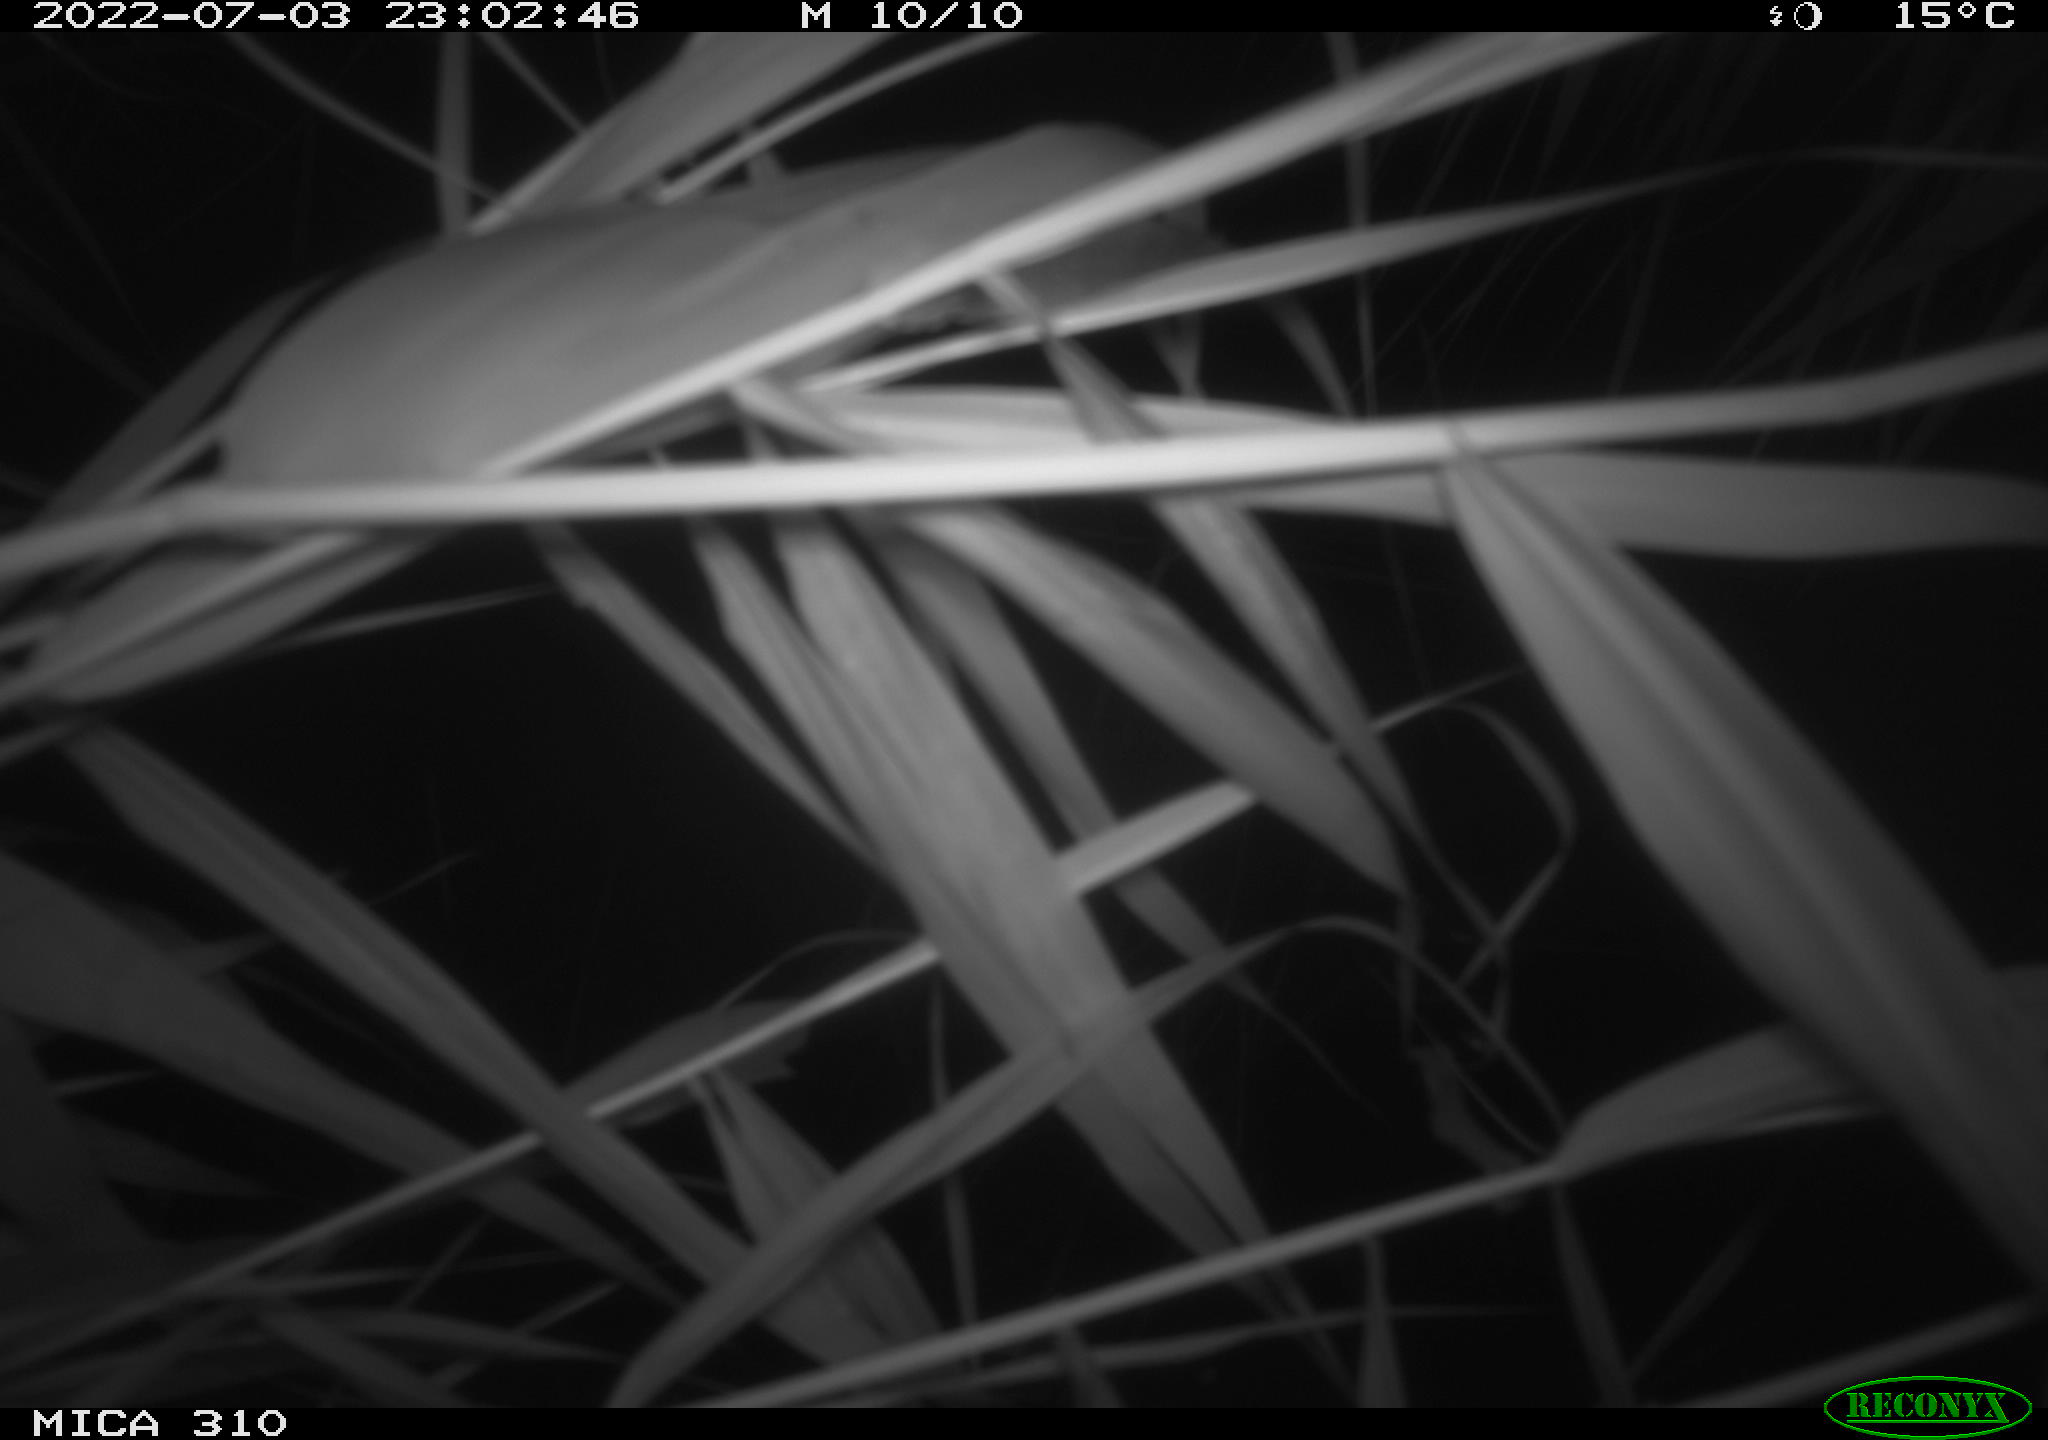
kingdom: Animalia
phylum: Chordata
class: Aves
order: Anseriformes
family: Anatidae
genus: Anas
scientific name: Anas platyrhynchos
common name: Mallard
